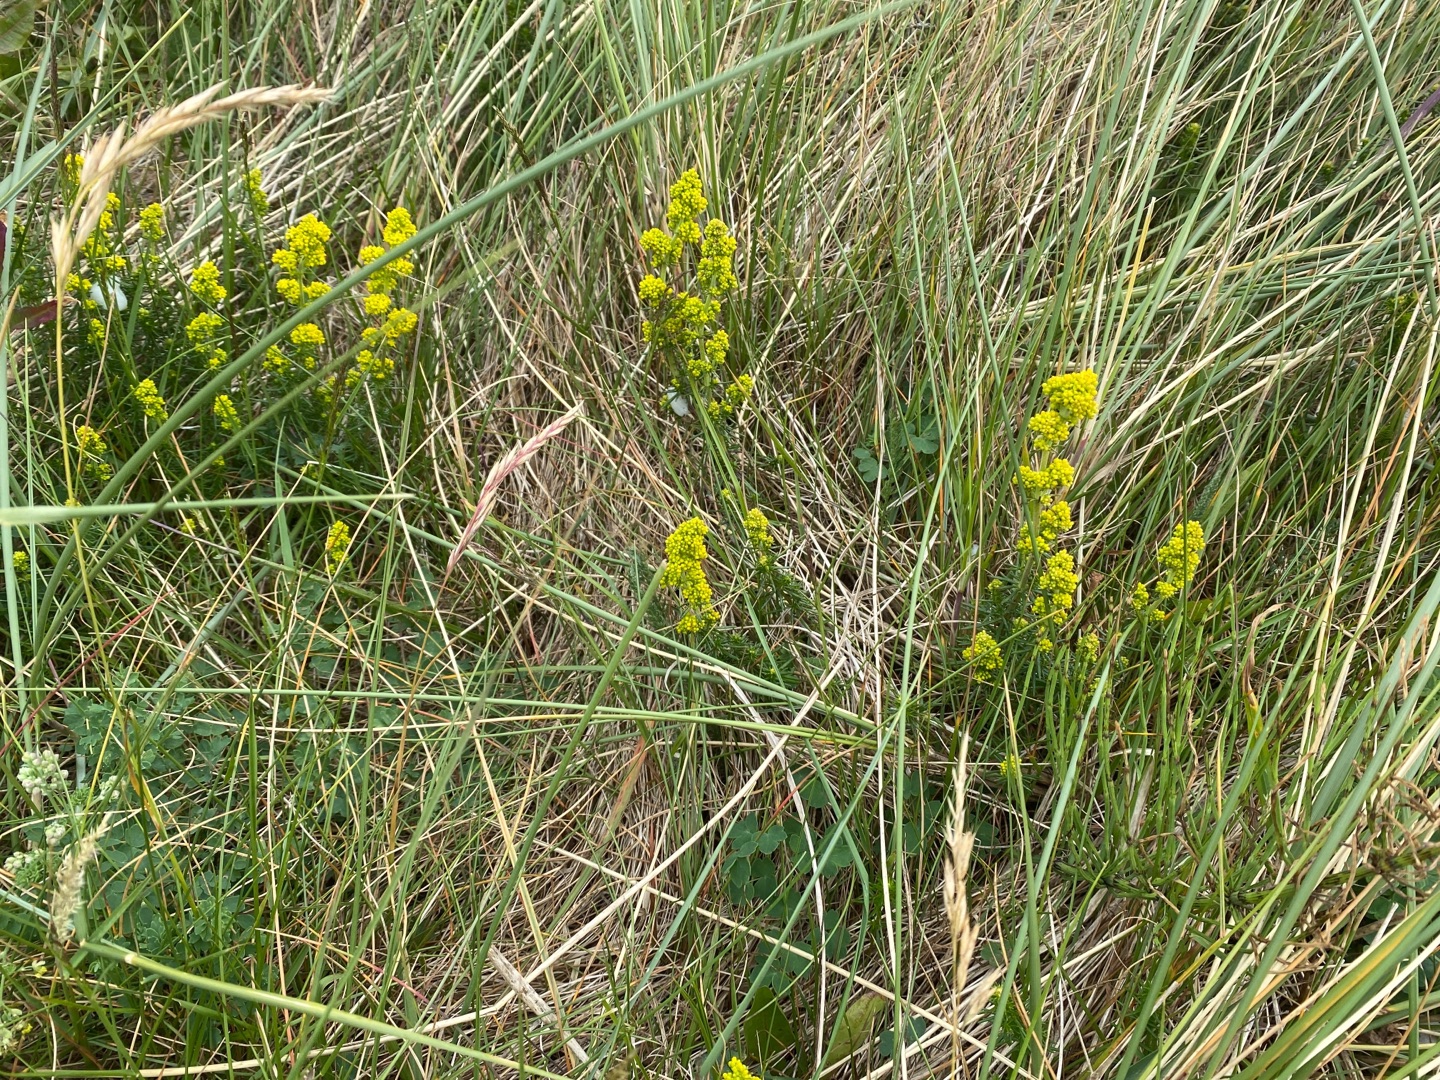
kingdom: Plantae
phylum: Tracheophyta
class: Magnoliopsida
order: Gentianales
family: Rubiaceae
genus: Galium
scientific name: Galium verum
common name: Gul snerre
